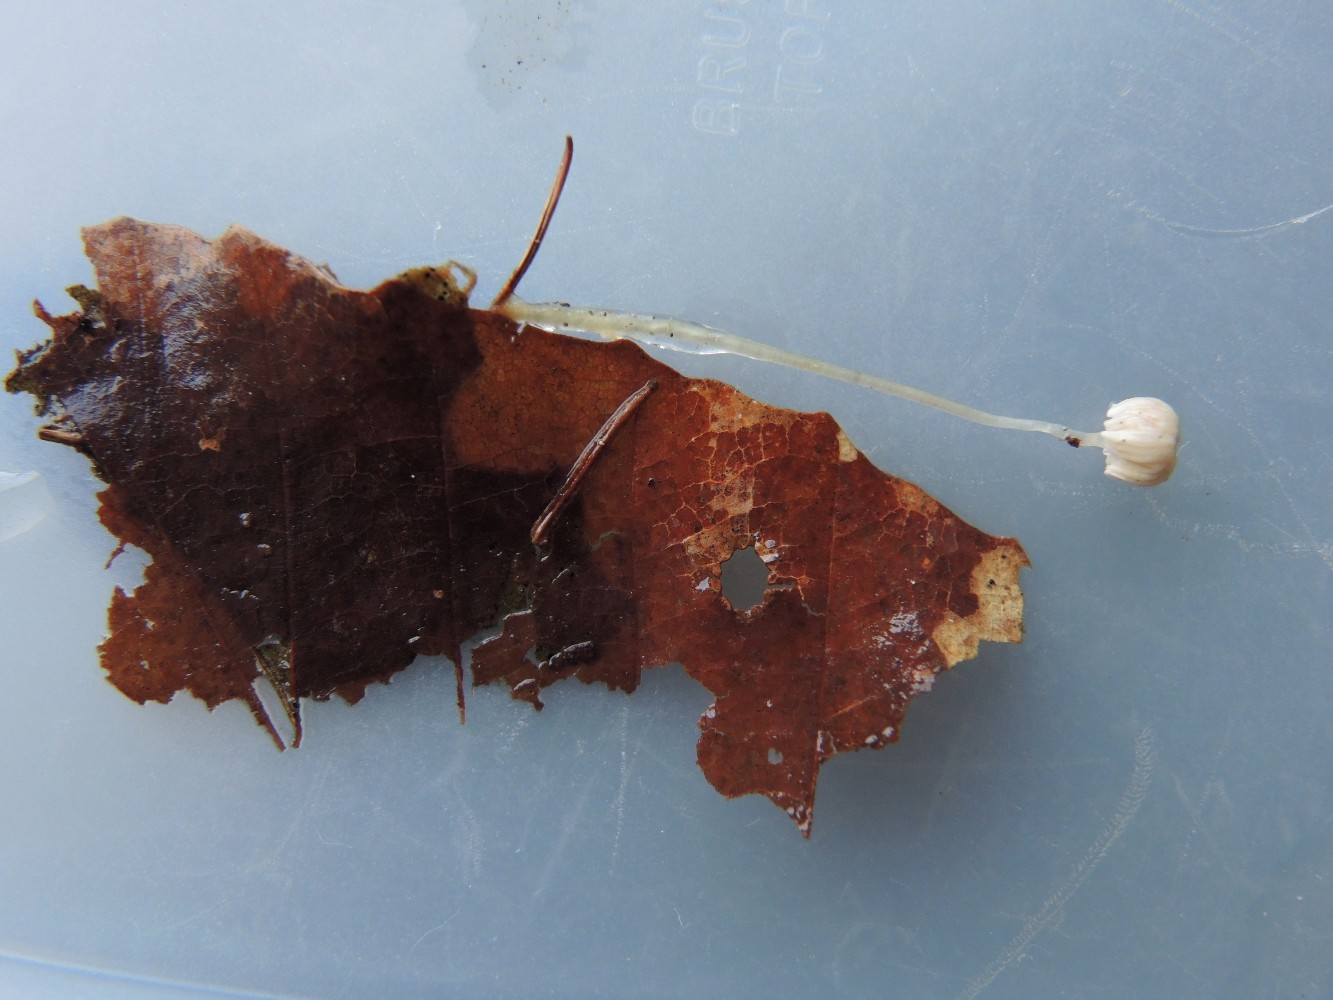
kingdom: Fungi
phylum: Basidiomycota
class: Agaricomycetes
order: Agaricales
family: Mycenaceae
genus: Roridomyces
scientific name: Roridomyces roridus
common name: slimfod
